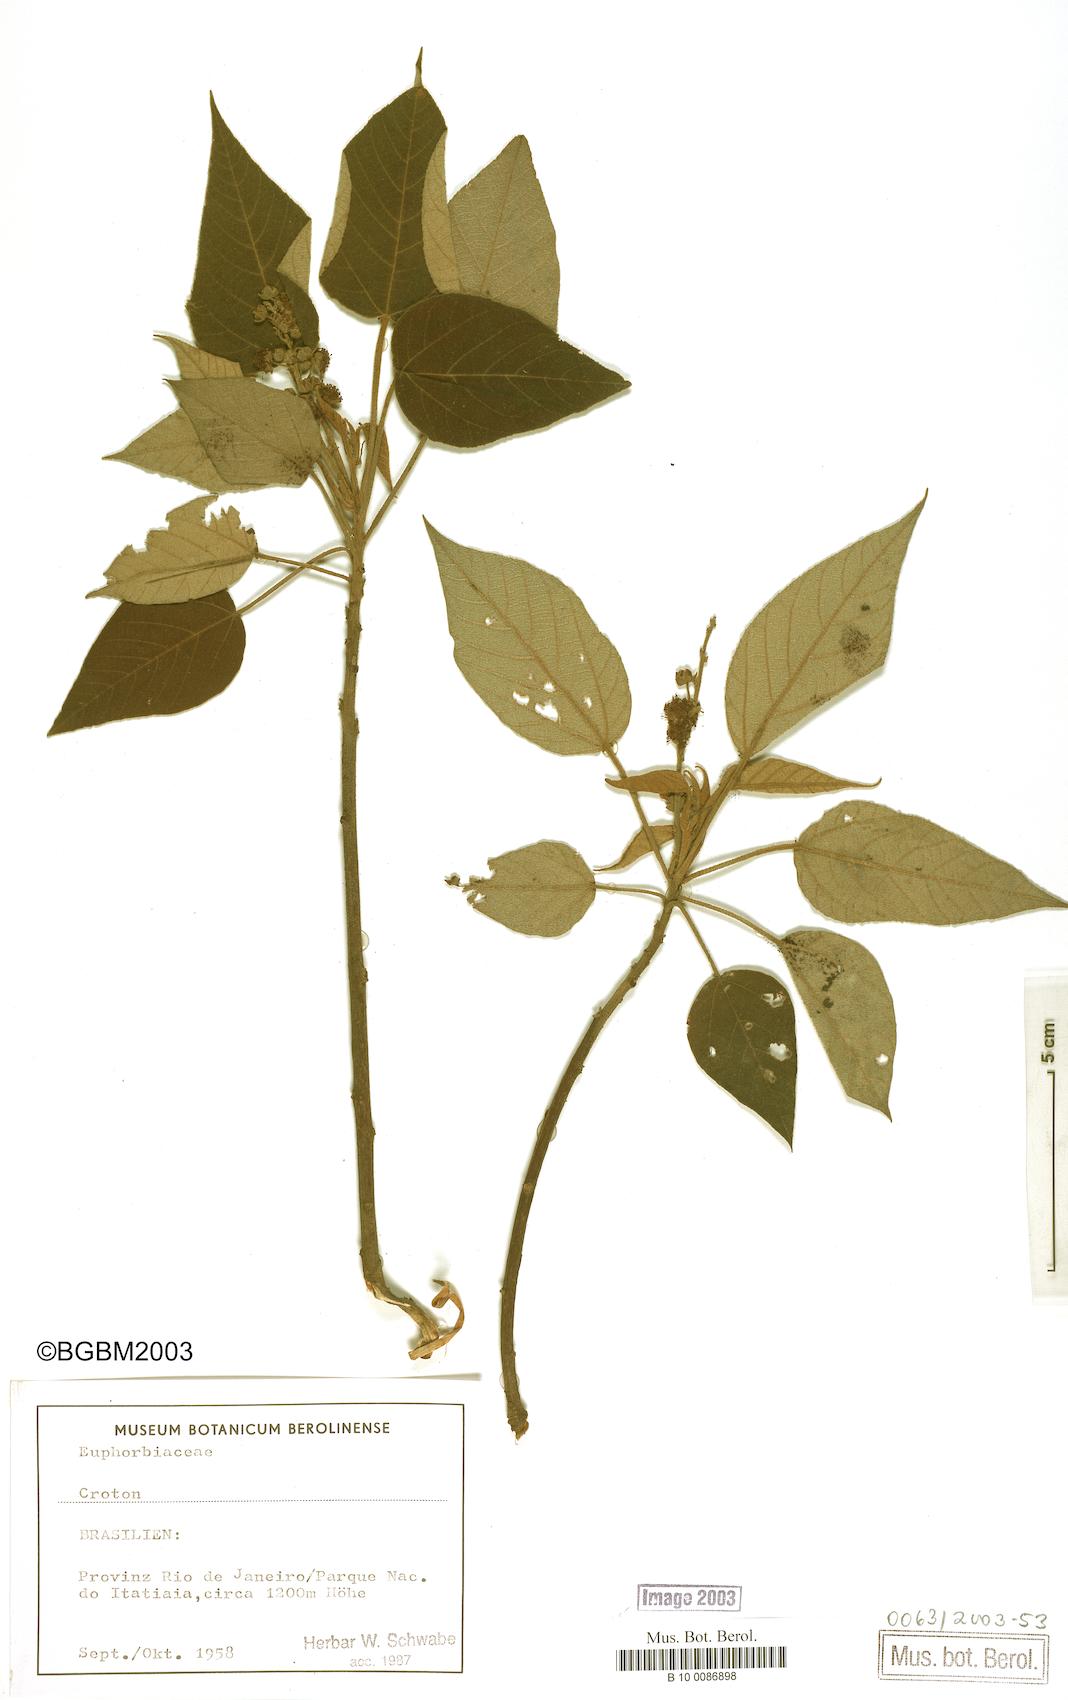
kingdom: Plantae
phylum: Tracheophyta
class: Magnoliopsida
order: Malpighiales
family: Euphorbiaceae
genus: Croton
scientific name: Croton
